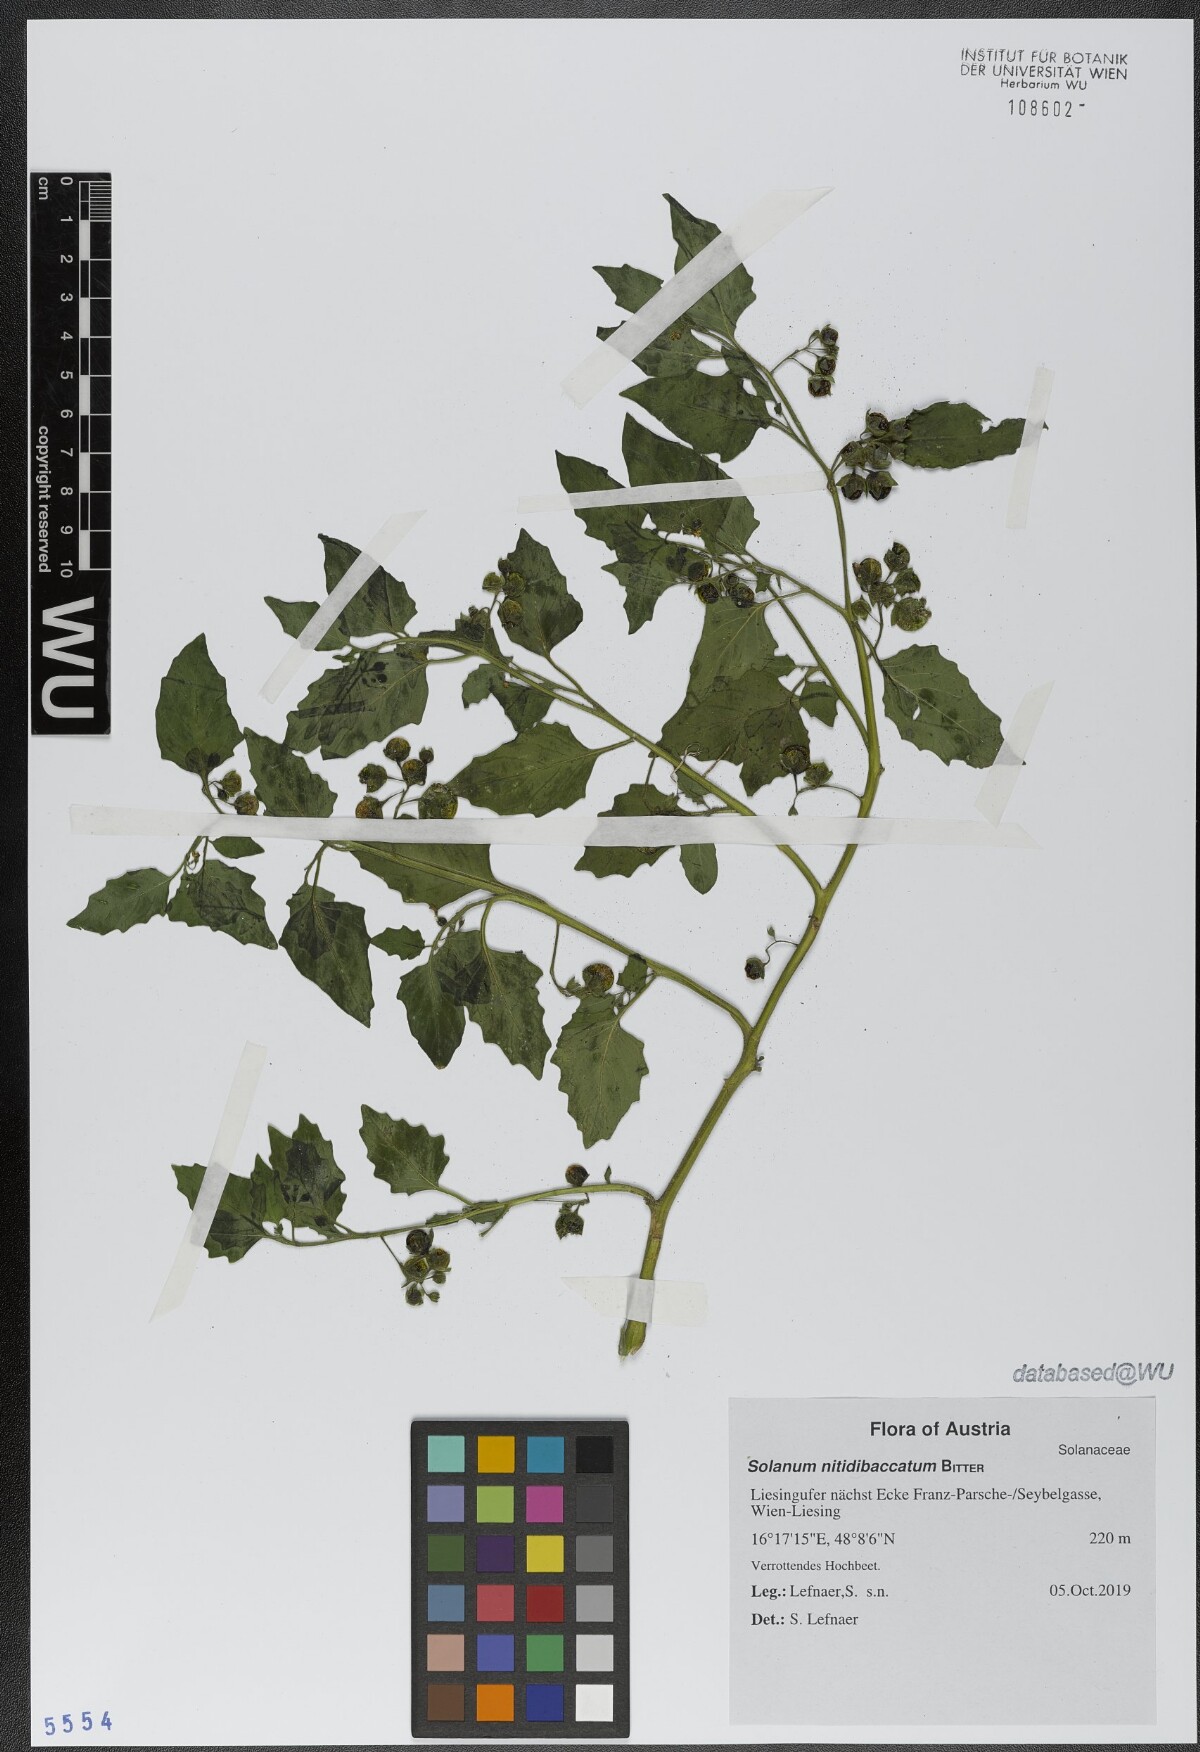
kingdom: Plantae
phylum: Tracheophyta
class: Magnoliopsida
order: Solanales
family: Solanaceae
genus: Solanum
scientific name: Solanum nitidibaccatum
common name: Hairy nightshade
